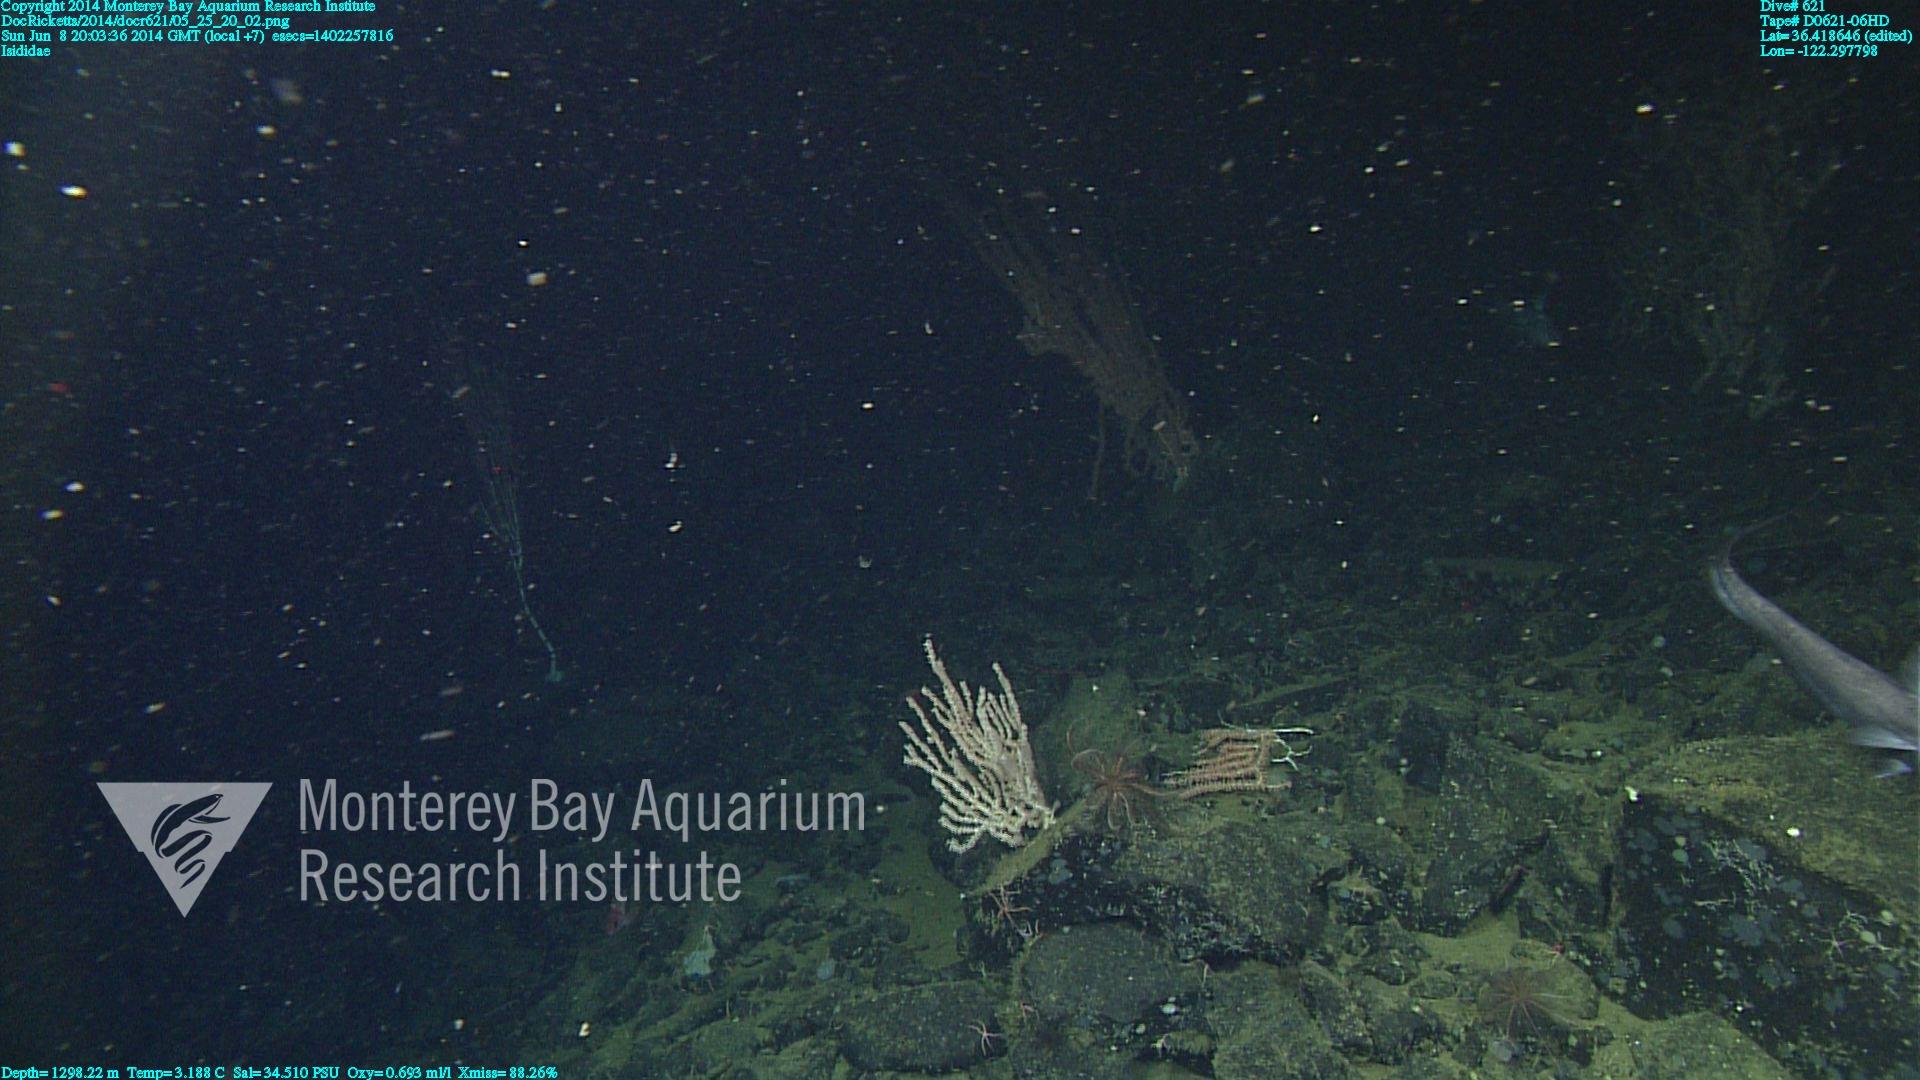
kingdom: Animalia
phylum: Cnidaria
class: Anthozoa
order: Scleralcyonacea
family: Keratoisididae
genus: Keratoisis
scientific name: Keratoisis
